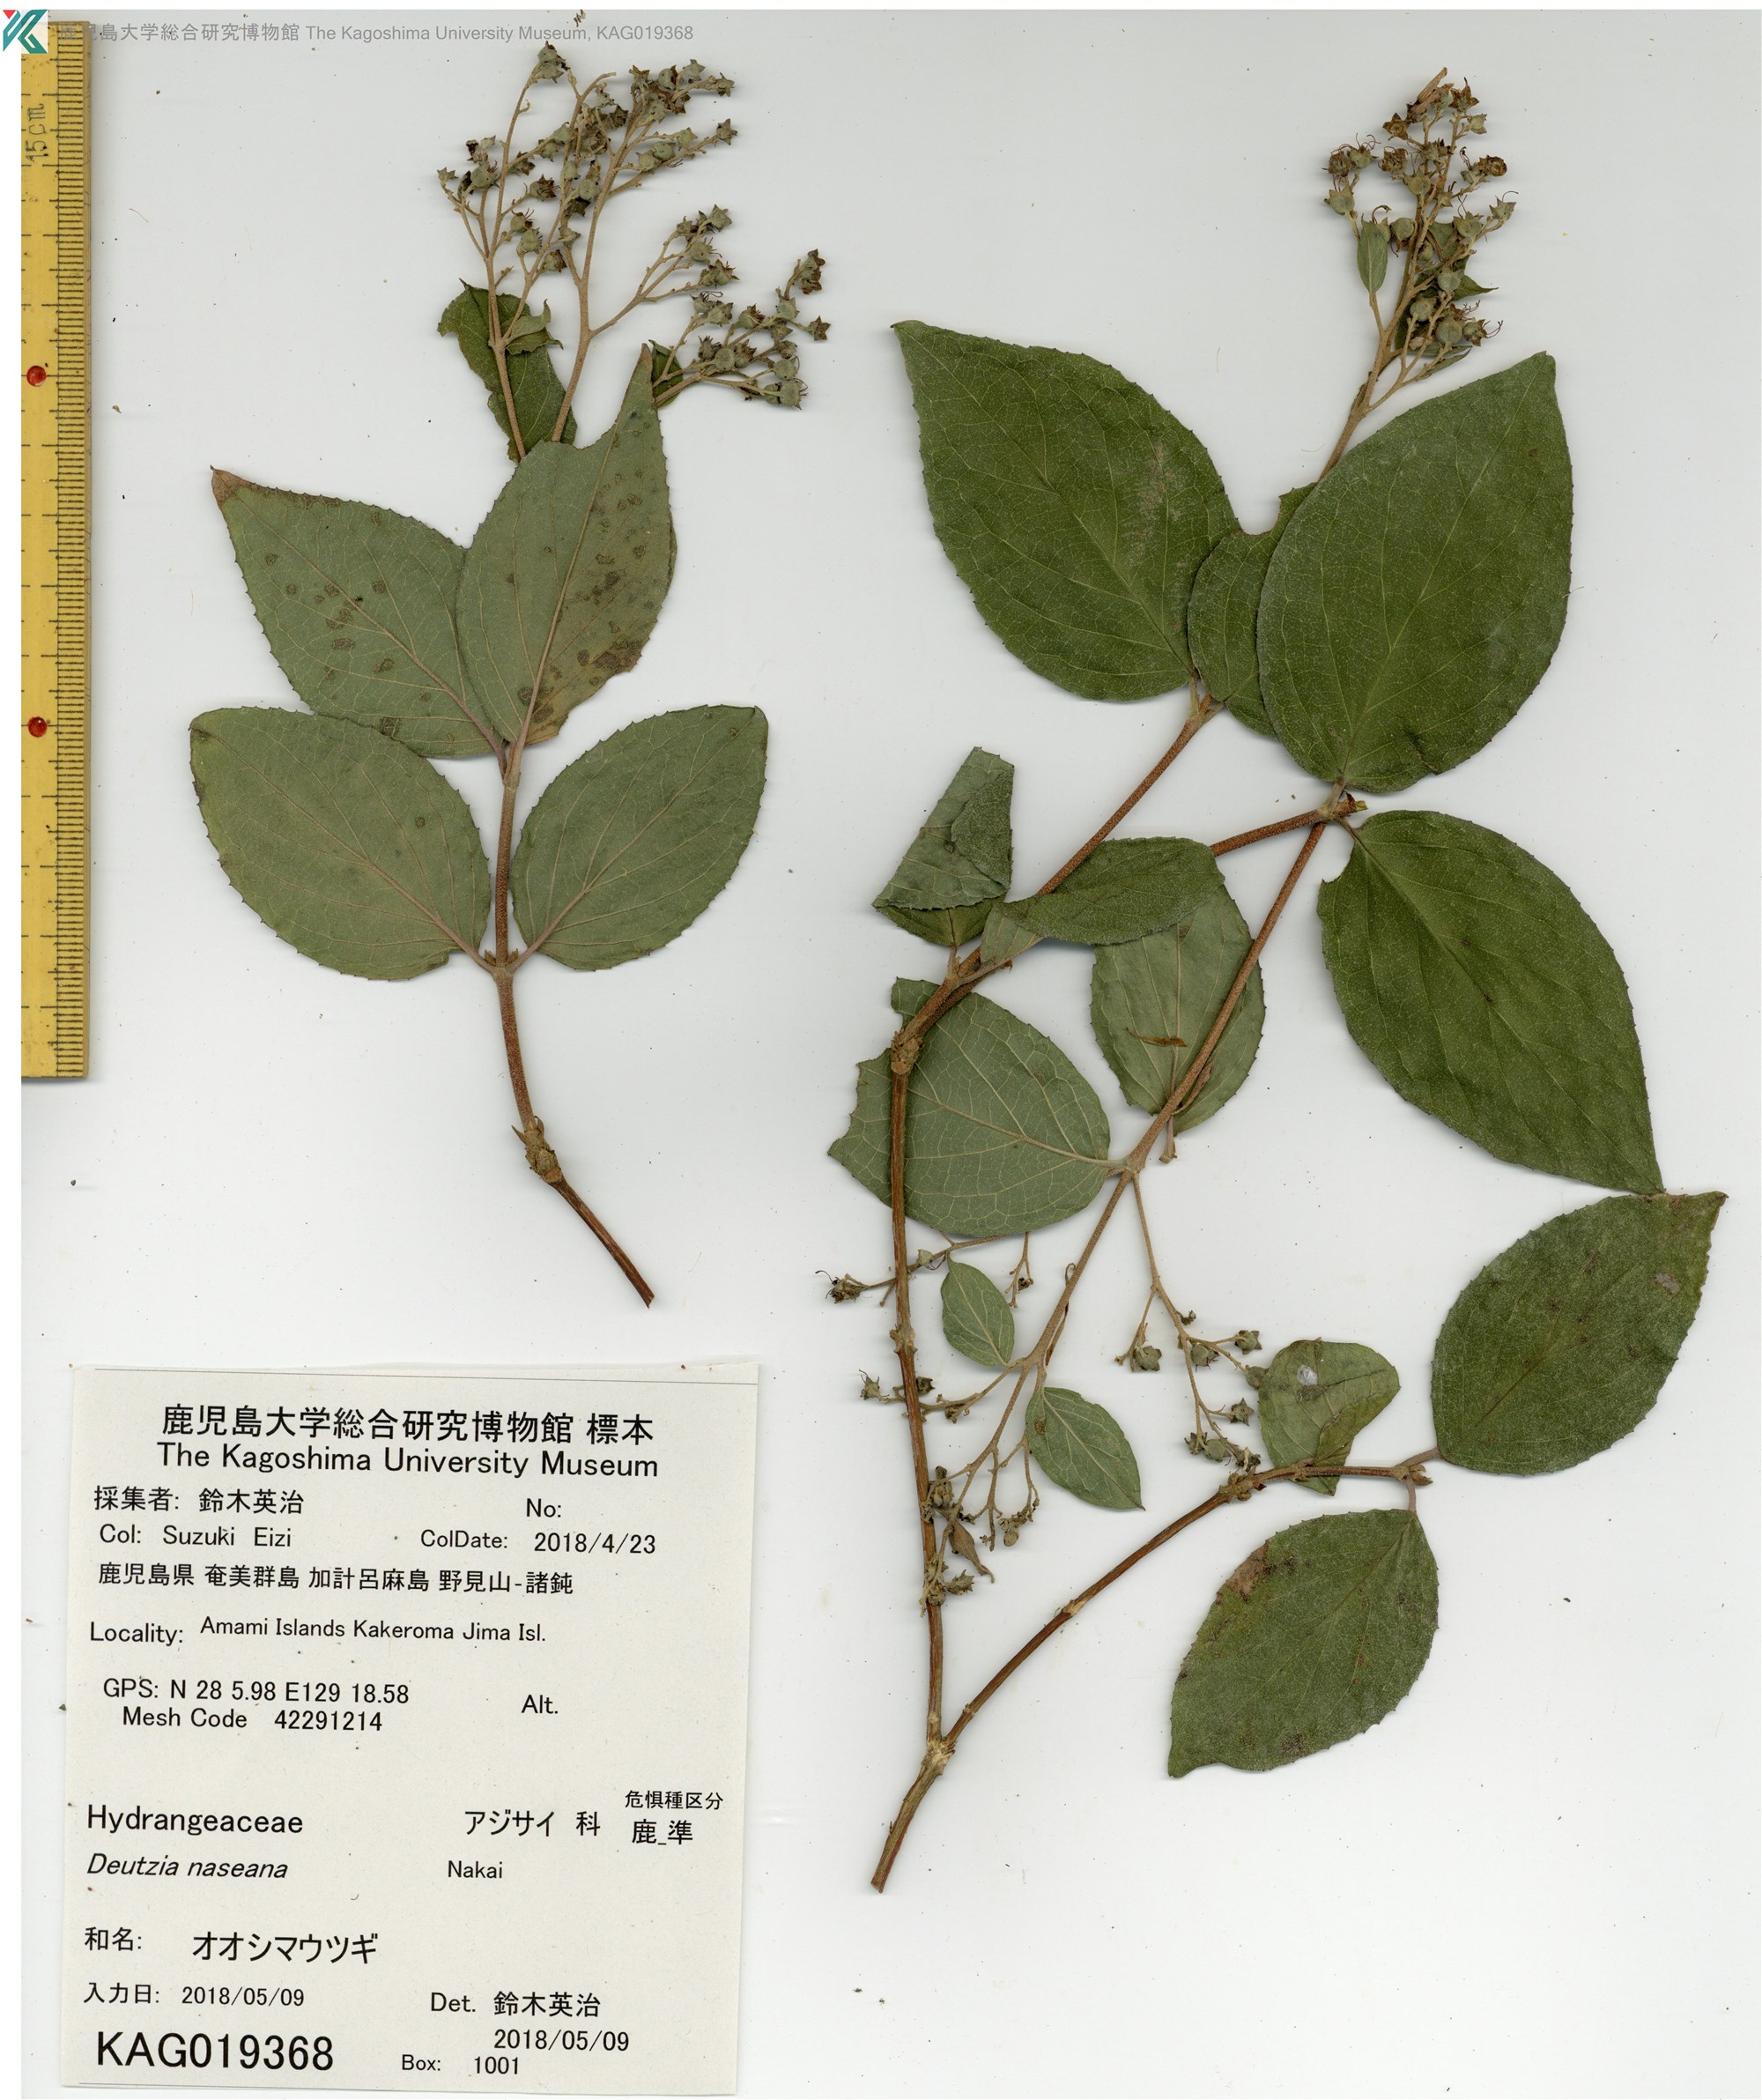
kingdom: Plantae
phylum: Tracheophyta
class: Magnoliopsida
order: Cornales
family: Hydrangeaceae
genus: Deutzia
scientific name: Deutzia naseana
